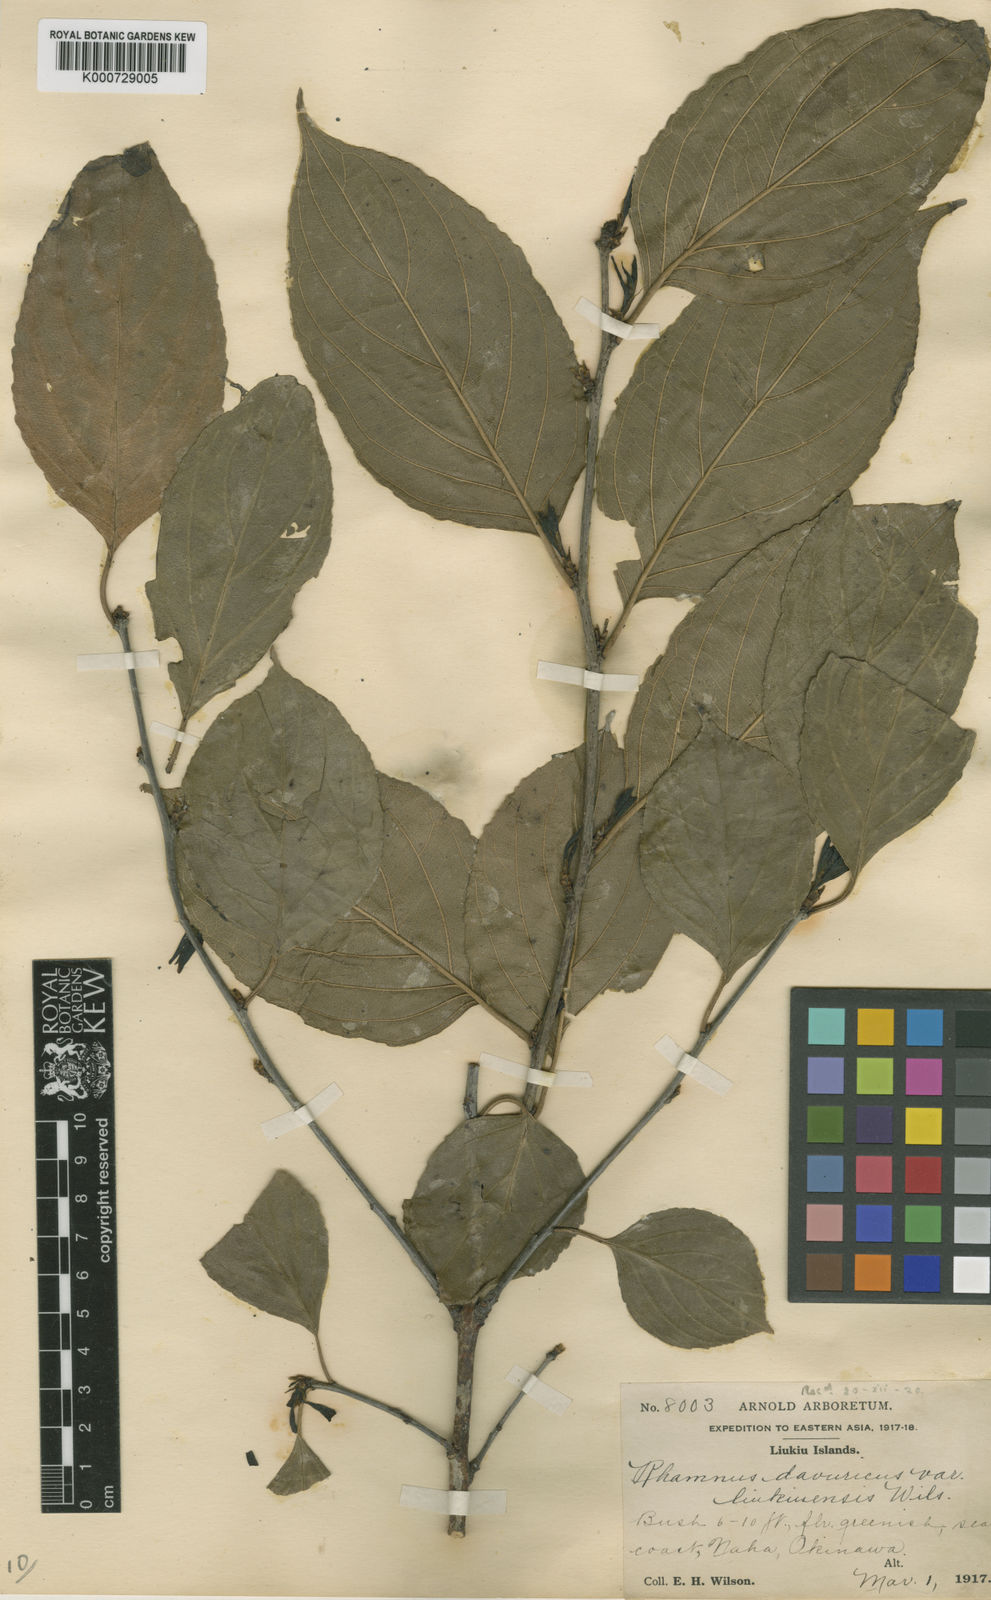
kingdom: Plantae
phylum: Tracheophyta
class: Magnoliopsida
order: Rosales
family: Rhamnaceae
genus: Rhamnus
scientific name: Rhamnus
